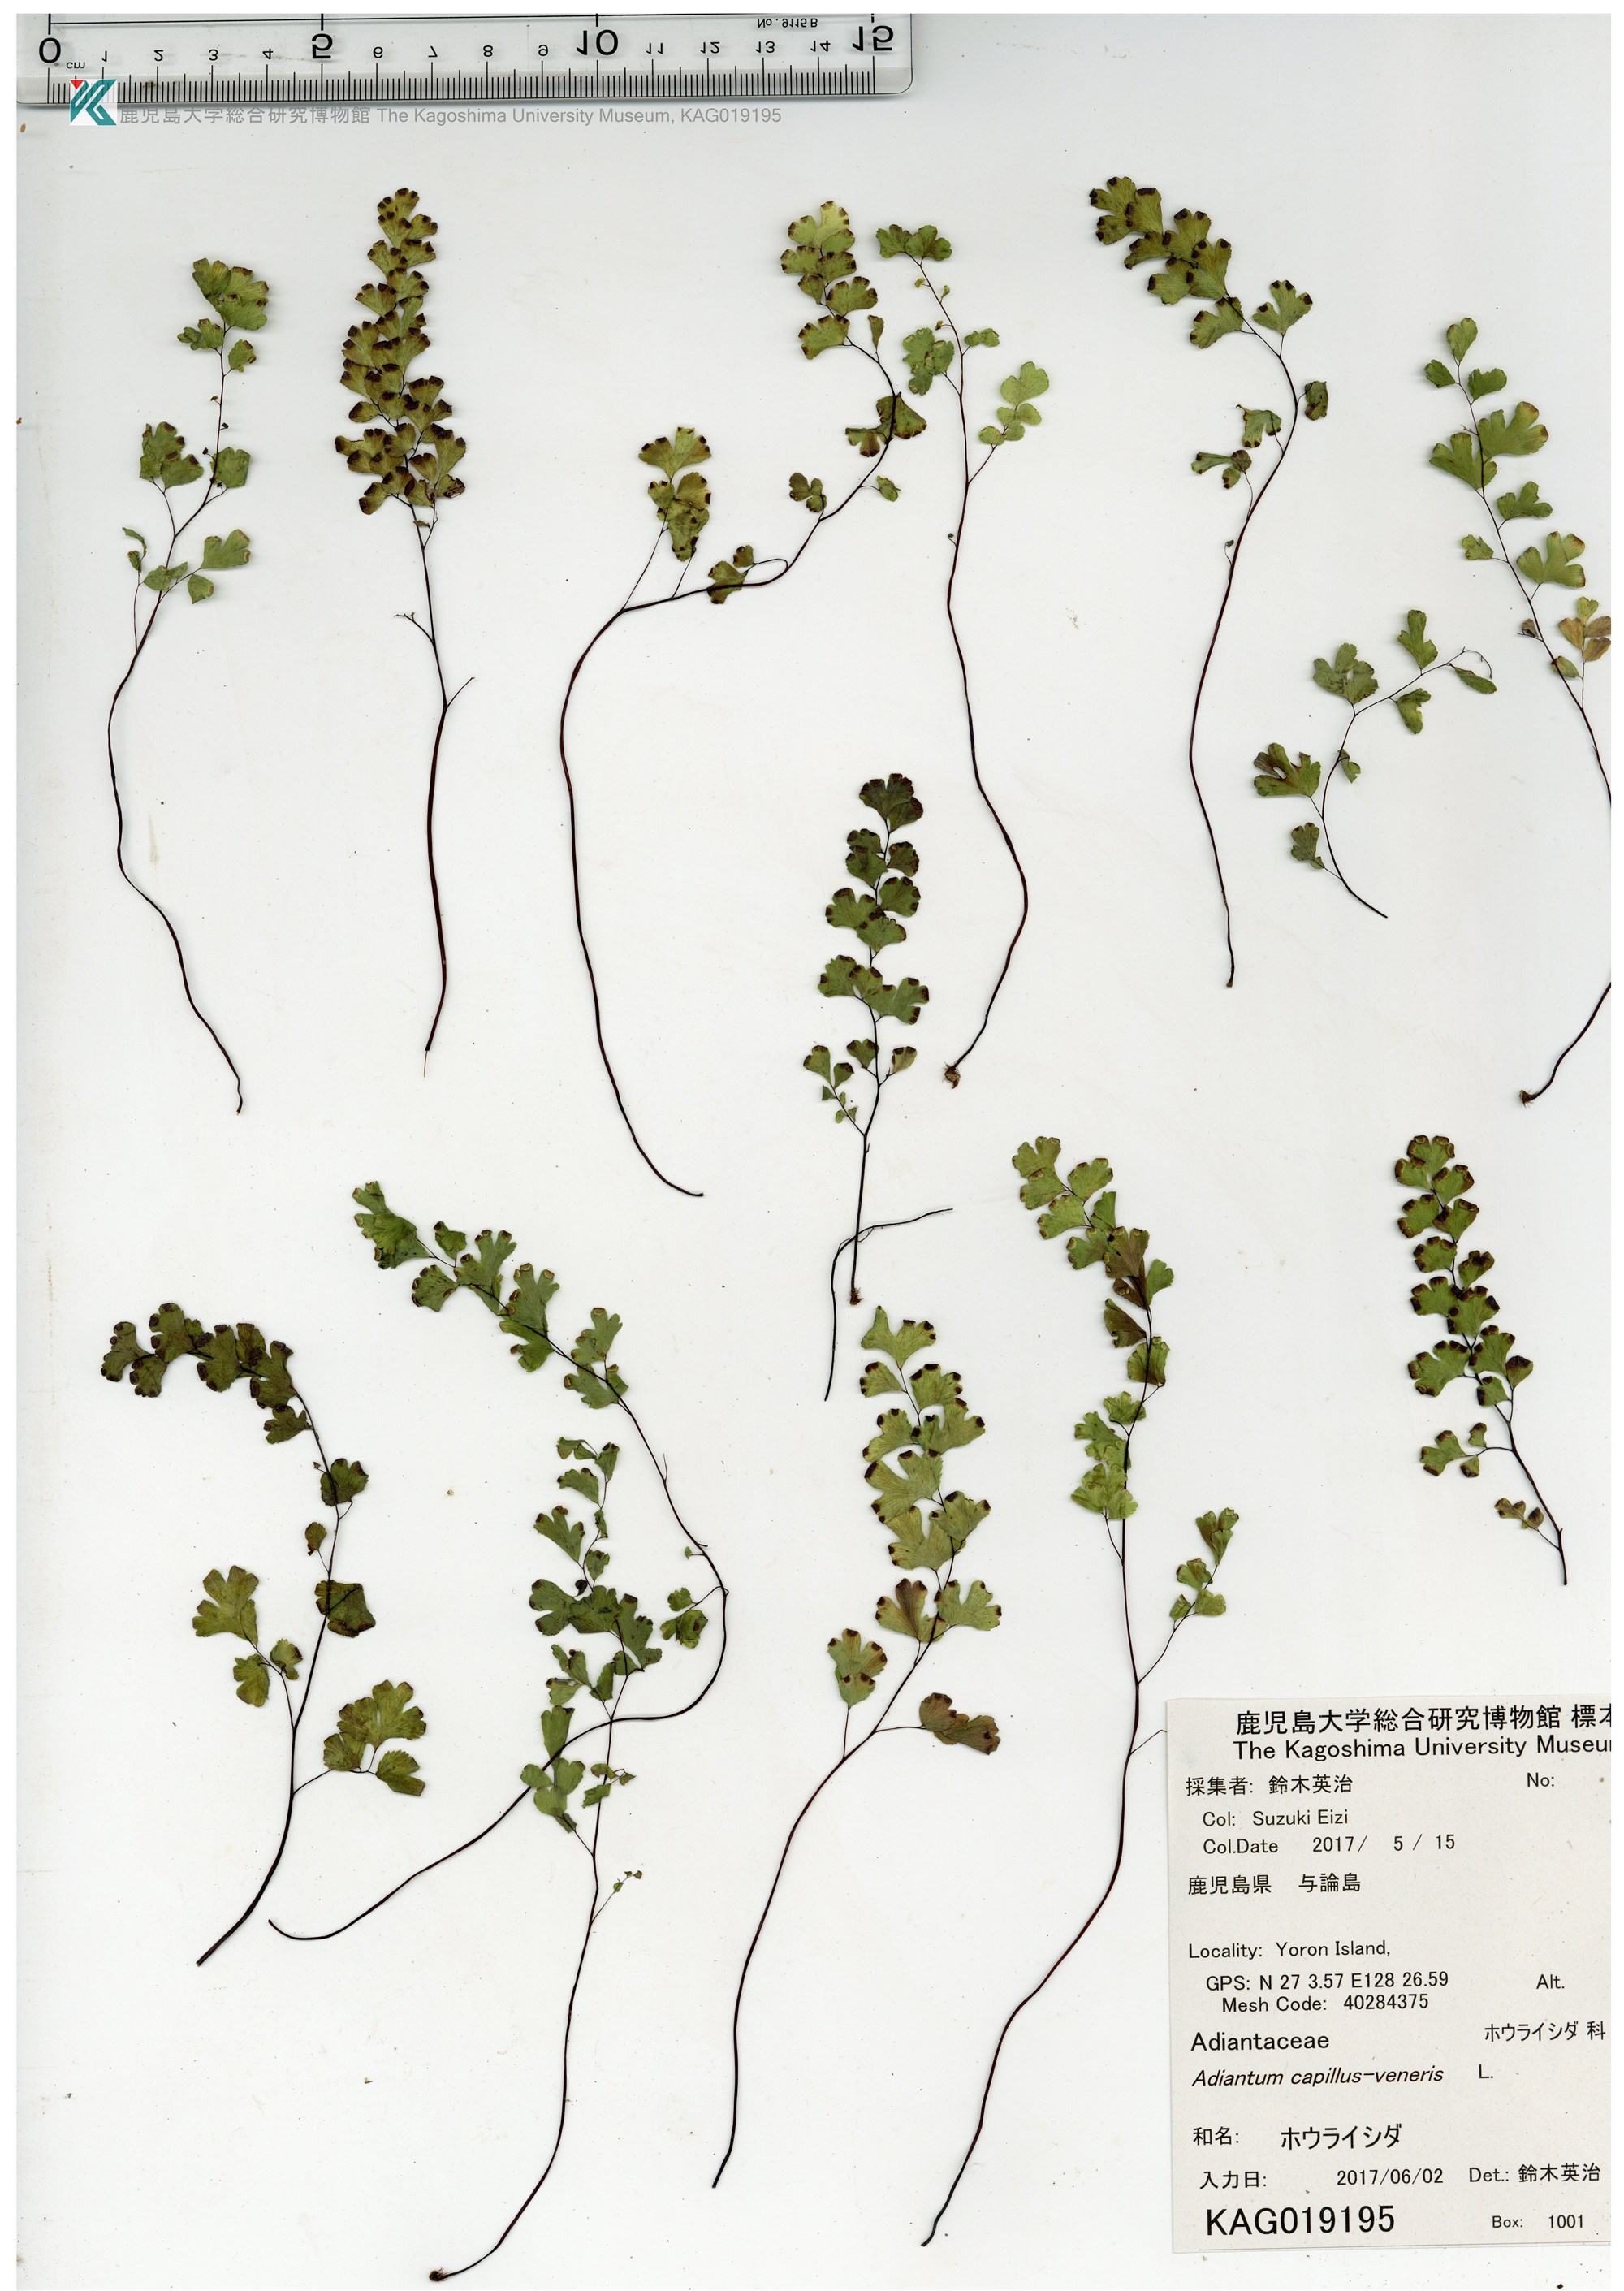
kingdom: Plantae
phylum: Tracheophyta
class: Polypodiopsida
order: Polypodiales
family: Pteridaceae
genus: Adiantum
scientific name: Adiantum capillus-veneris
